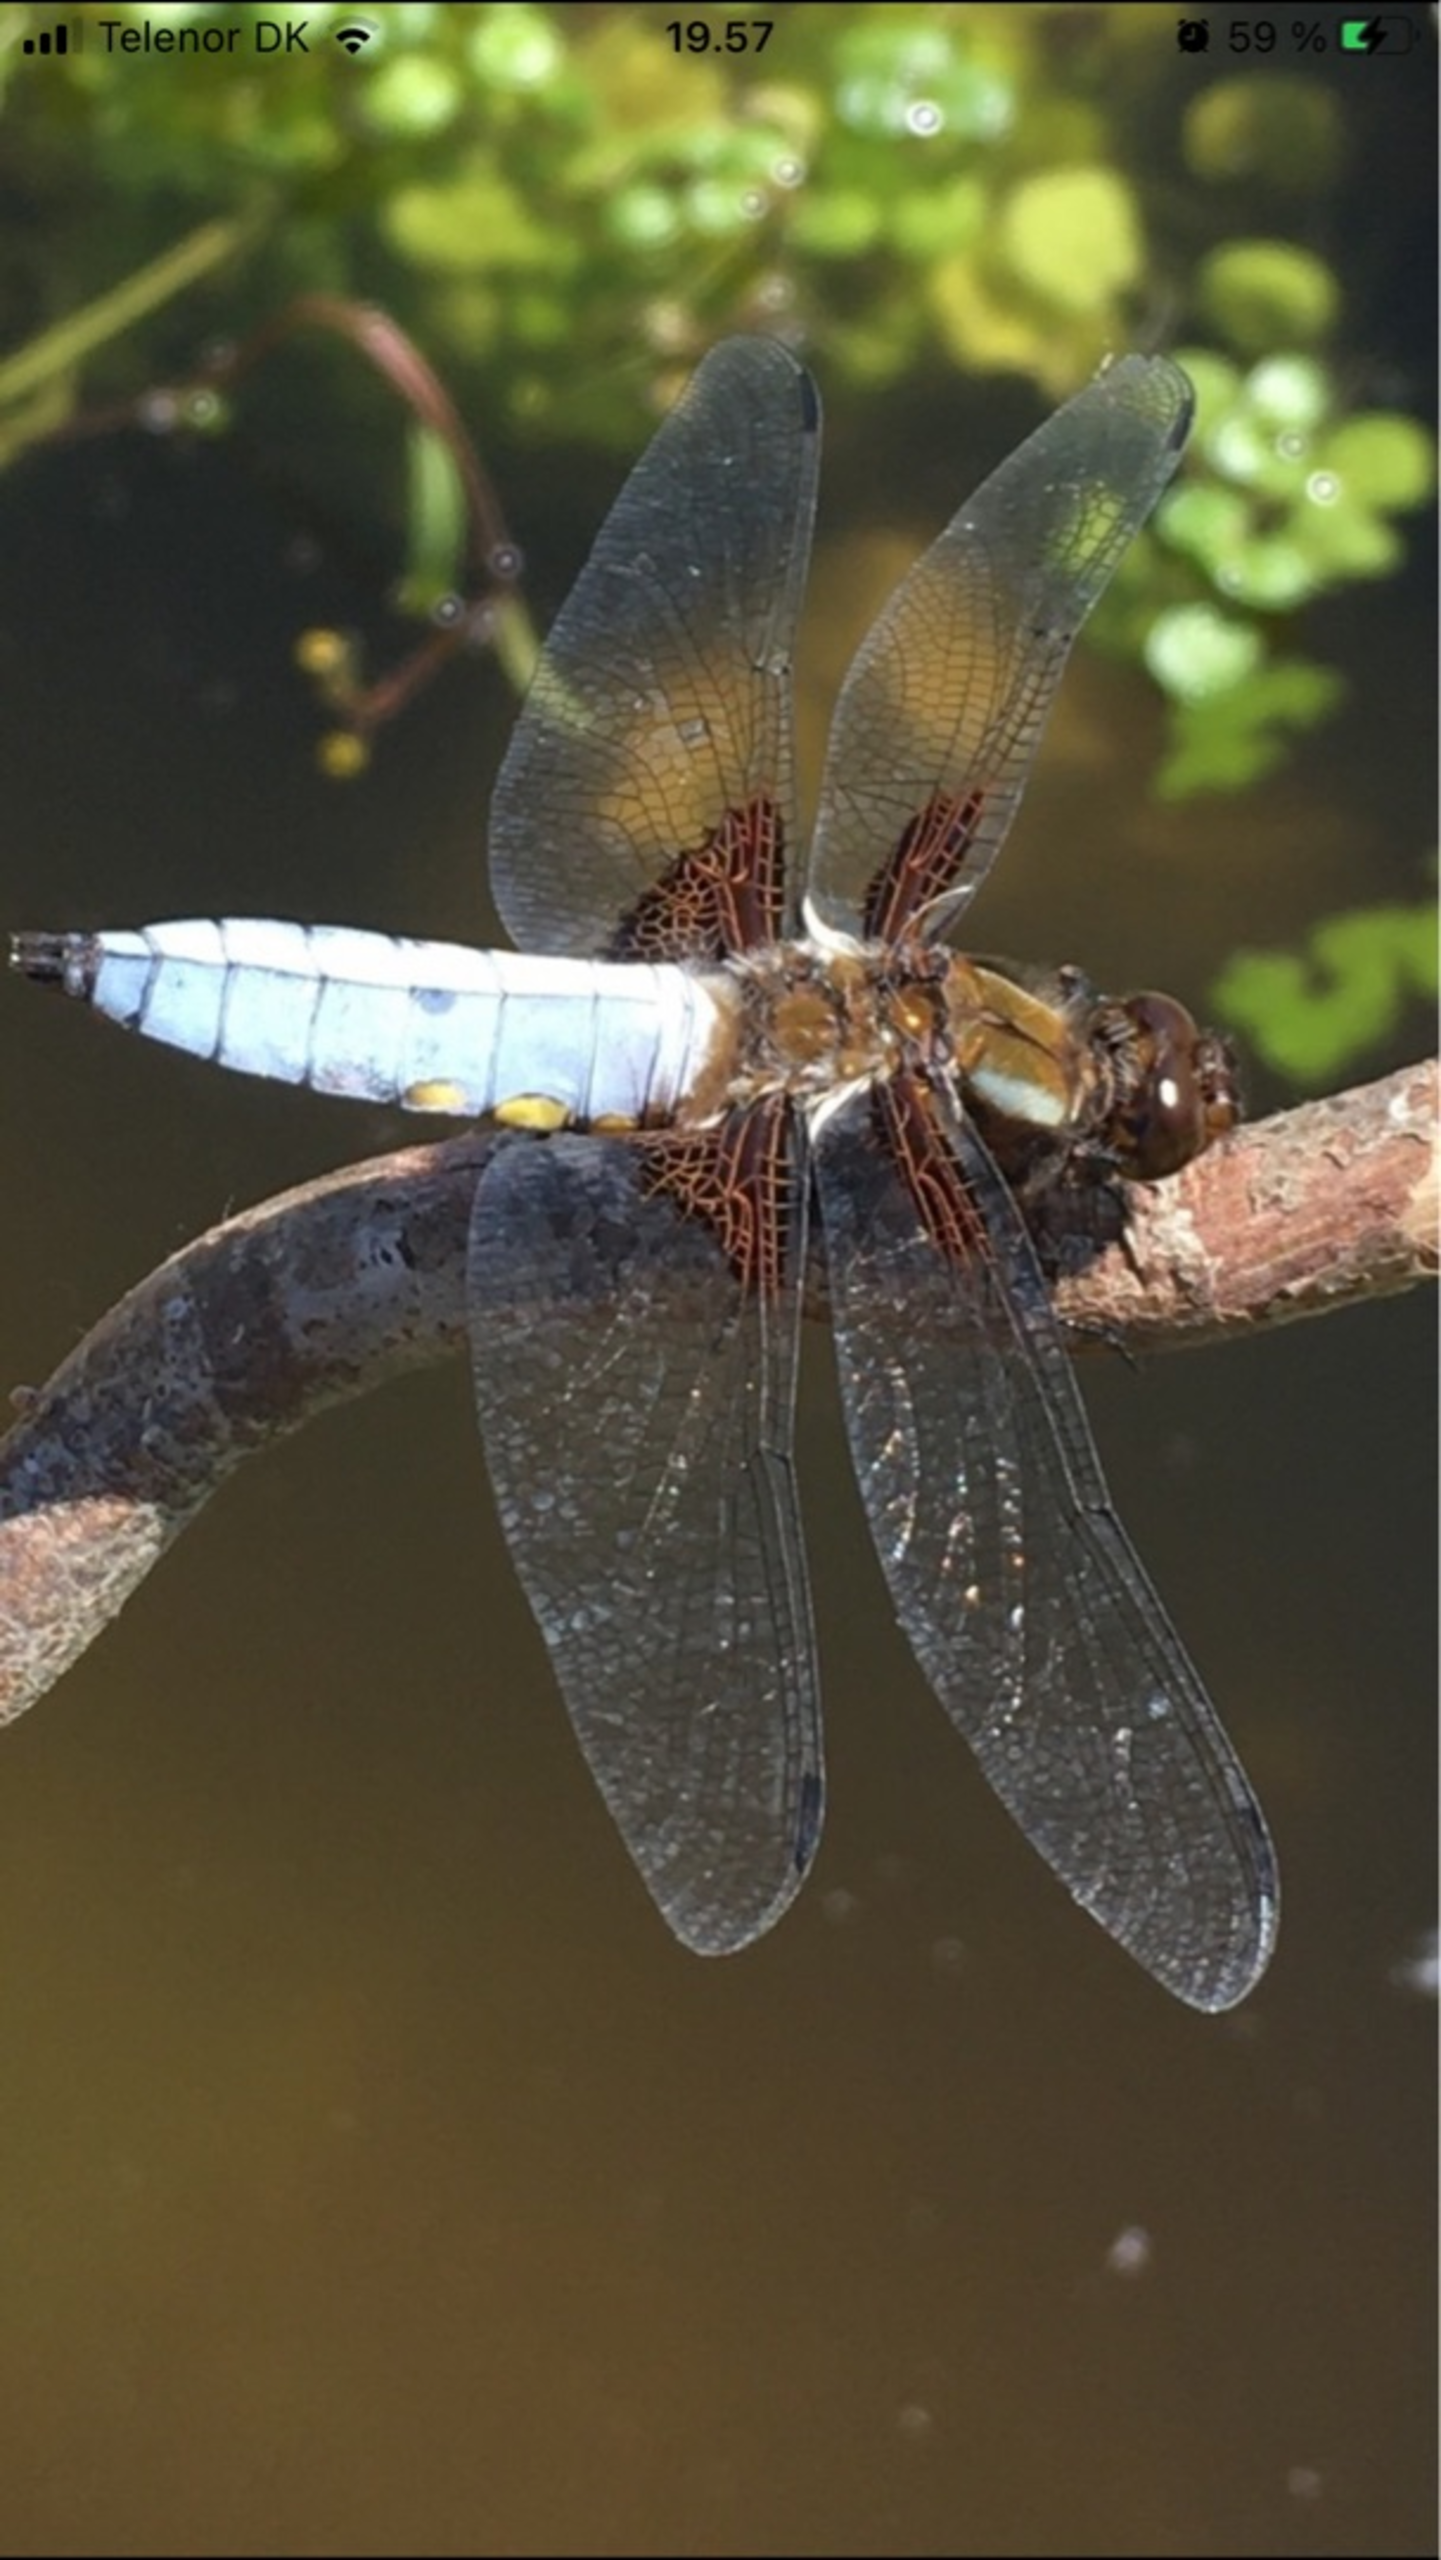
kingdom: Animalia
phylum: Arthropoda
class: Insecta
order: Odonata
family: Libellulidae
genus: Libellula
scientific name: Libellula depressa
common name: Blå libel
